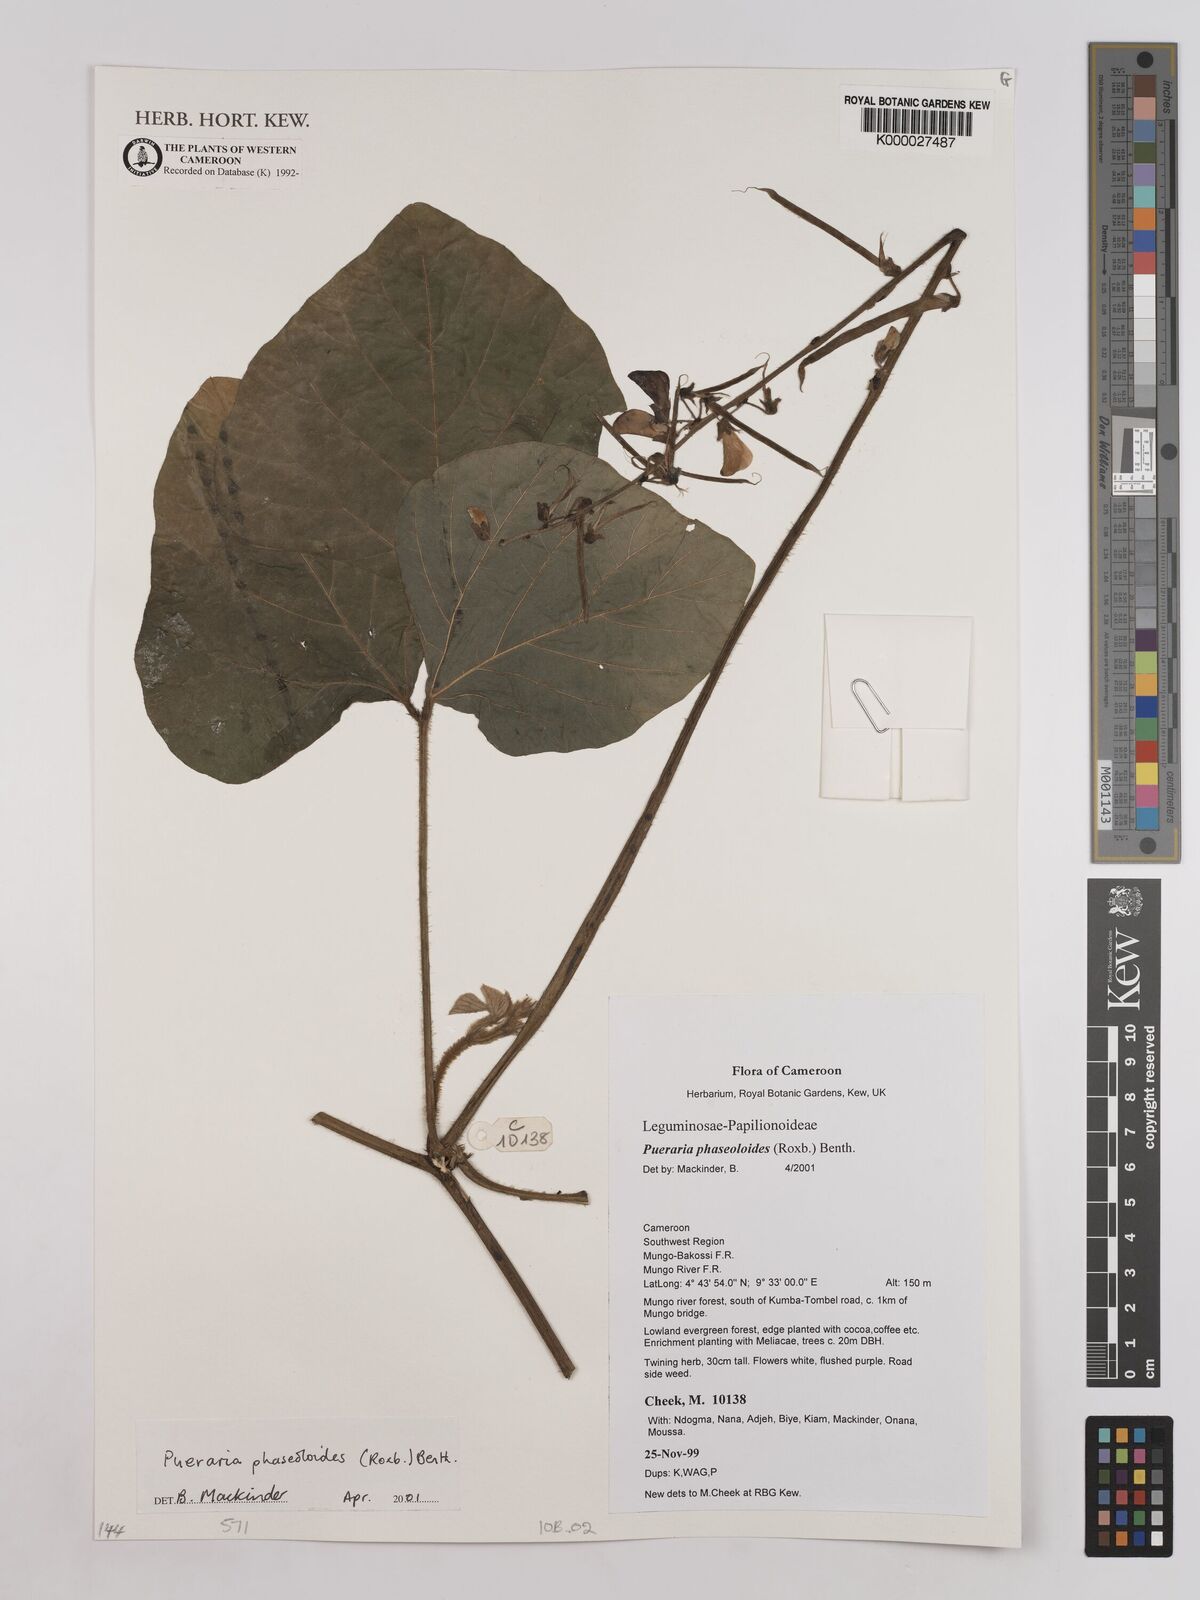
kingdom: Plantae
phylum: Tracheophyta
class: Magnoliopsida
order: Fabales
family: Fabaceae
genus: Neustanthus
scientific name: Neustanthus phaseoloides
